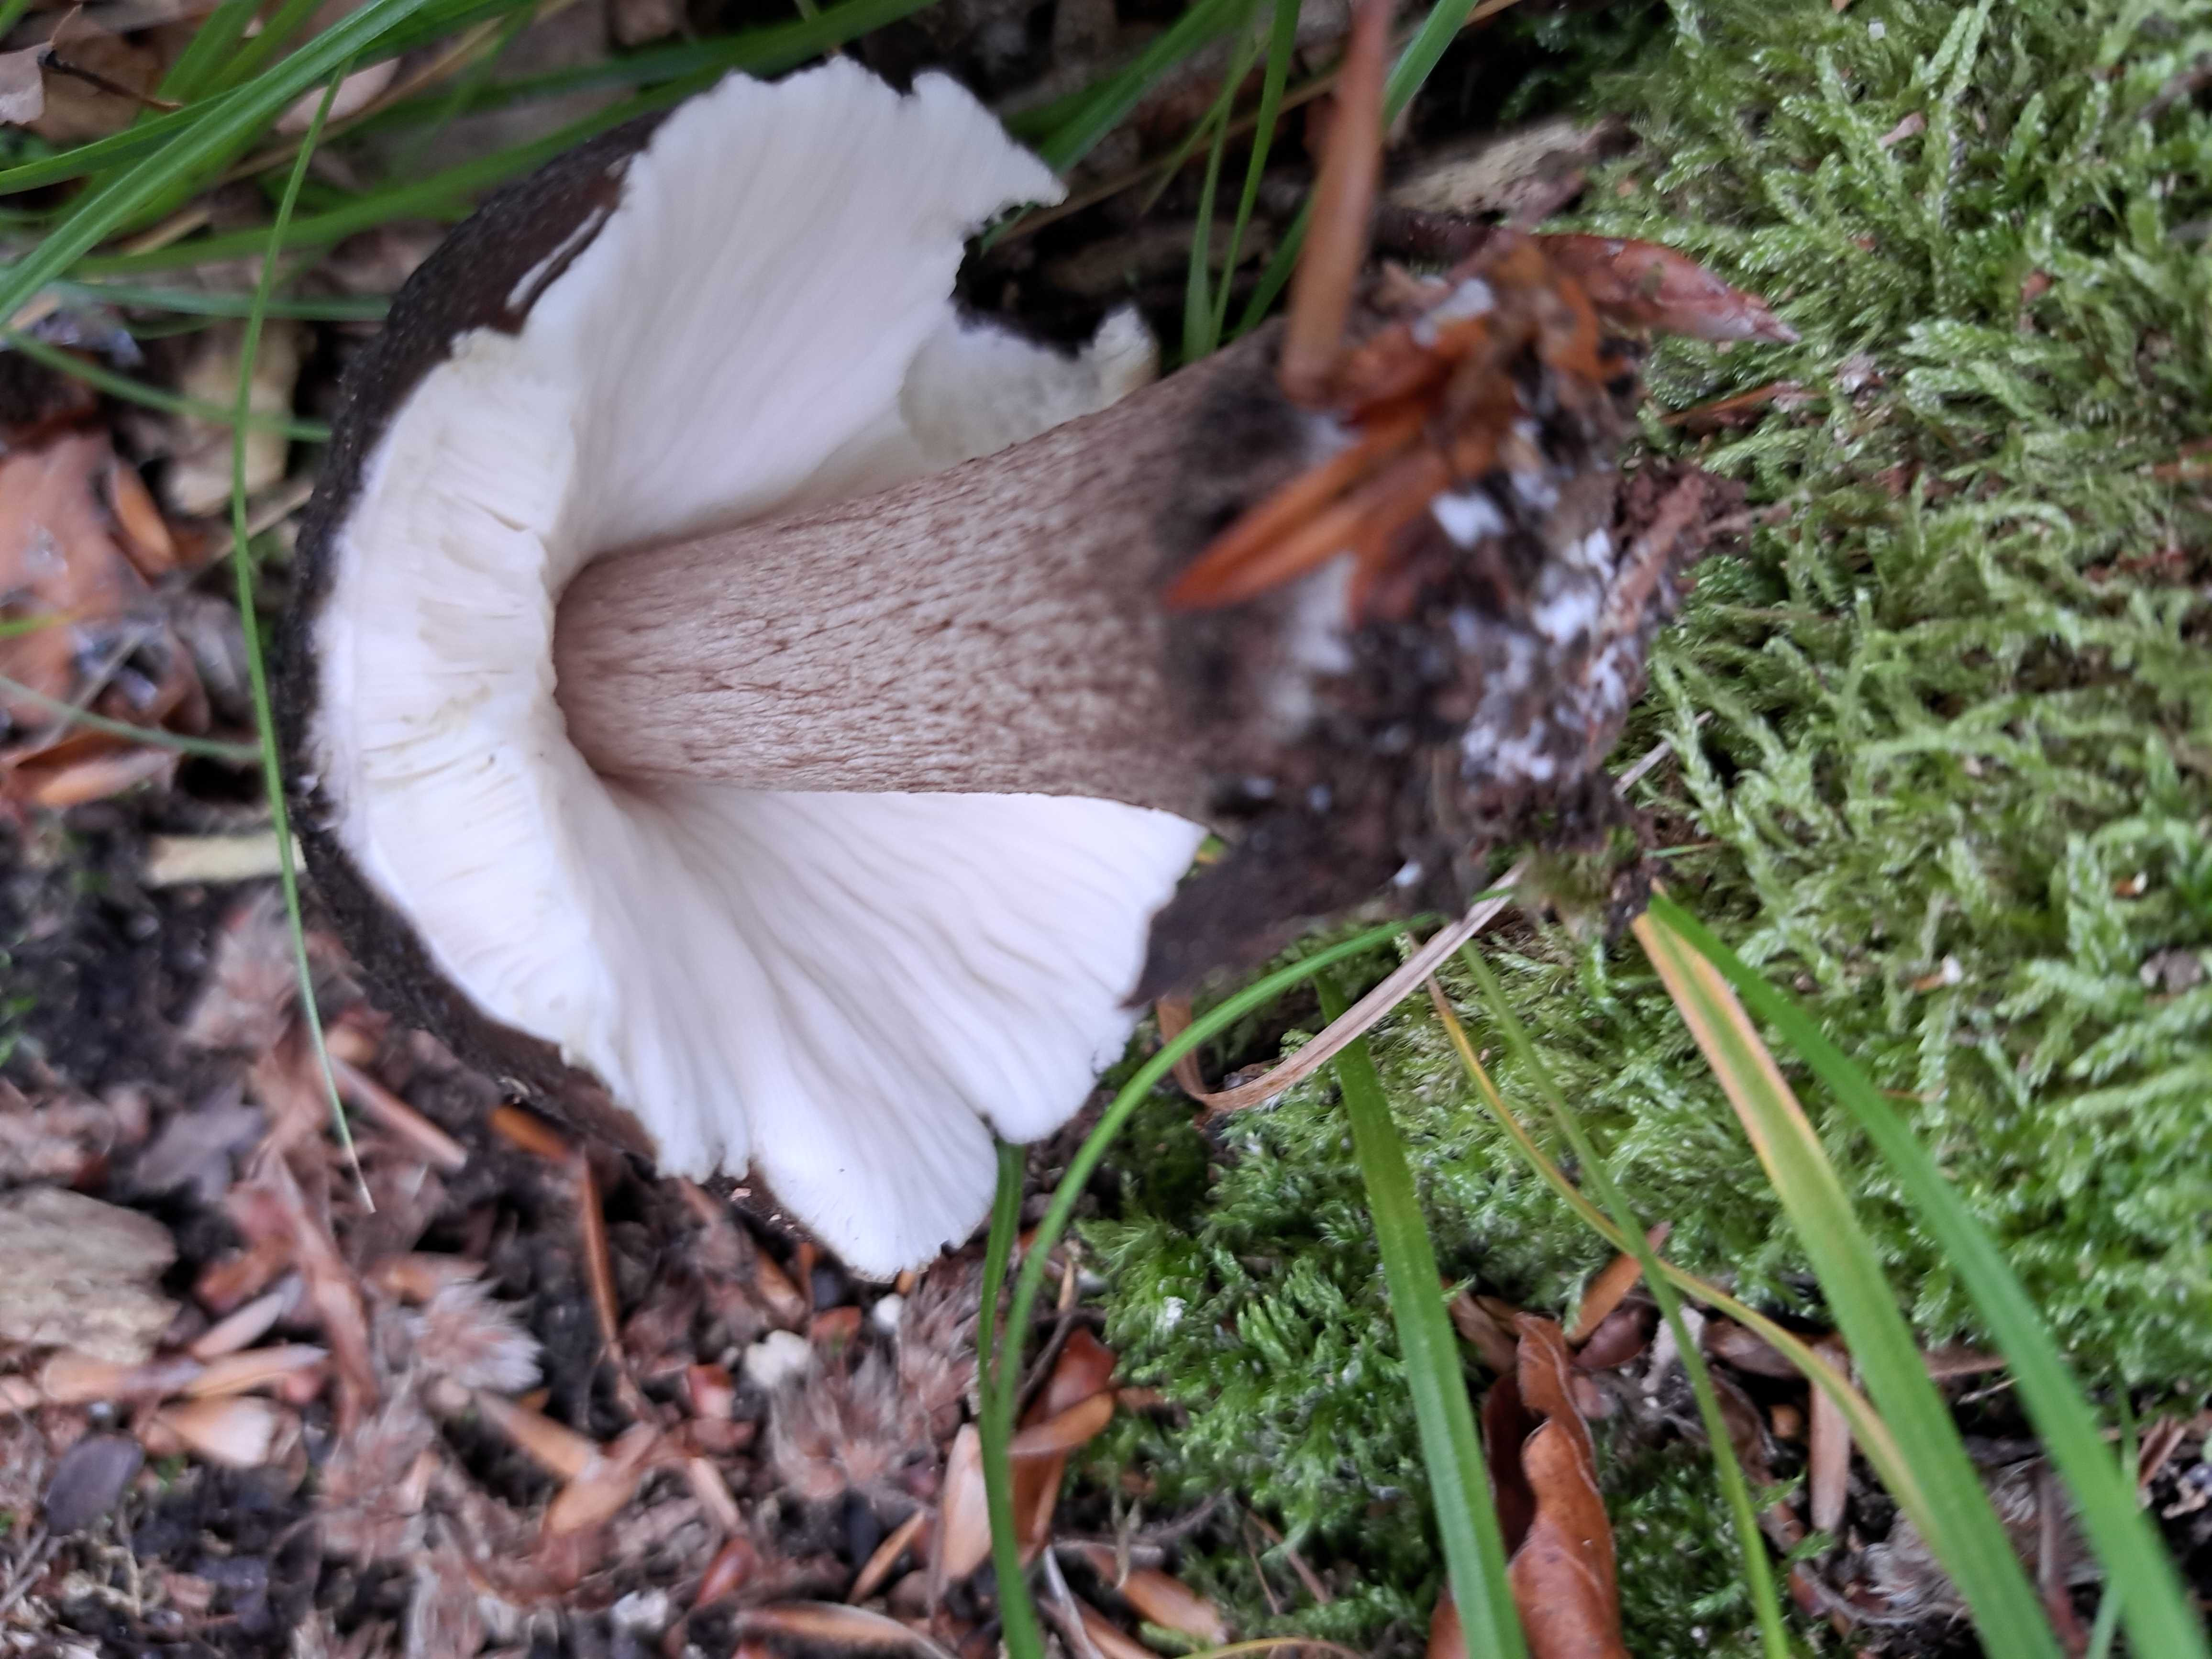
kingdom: Fungi
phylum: Basidiomycota
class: Agaricomycetes
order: Agaricales
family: Pluteaceae
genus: Pluteus
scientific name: Pluteus cervinus
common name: sodfarvet skærmhat
